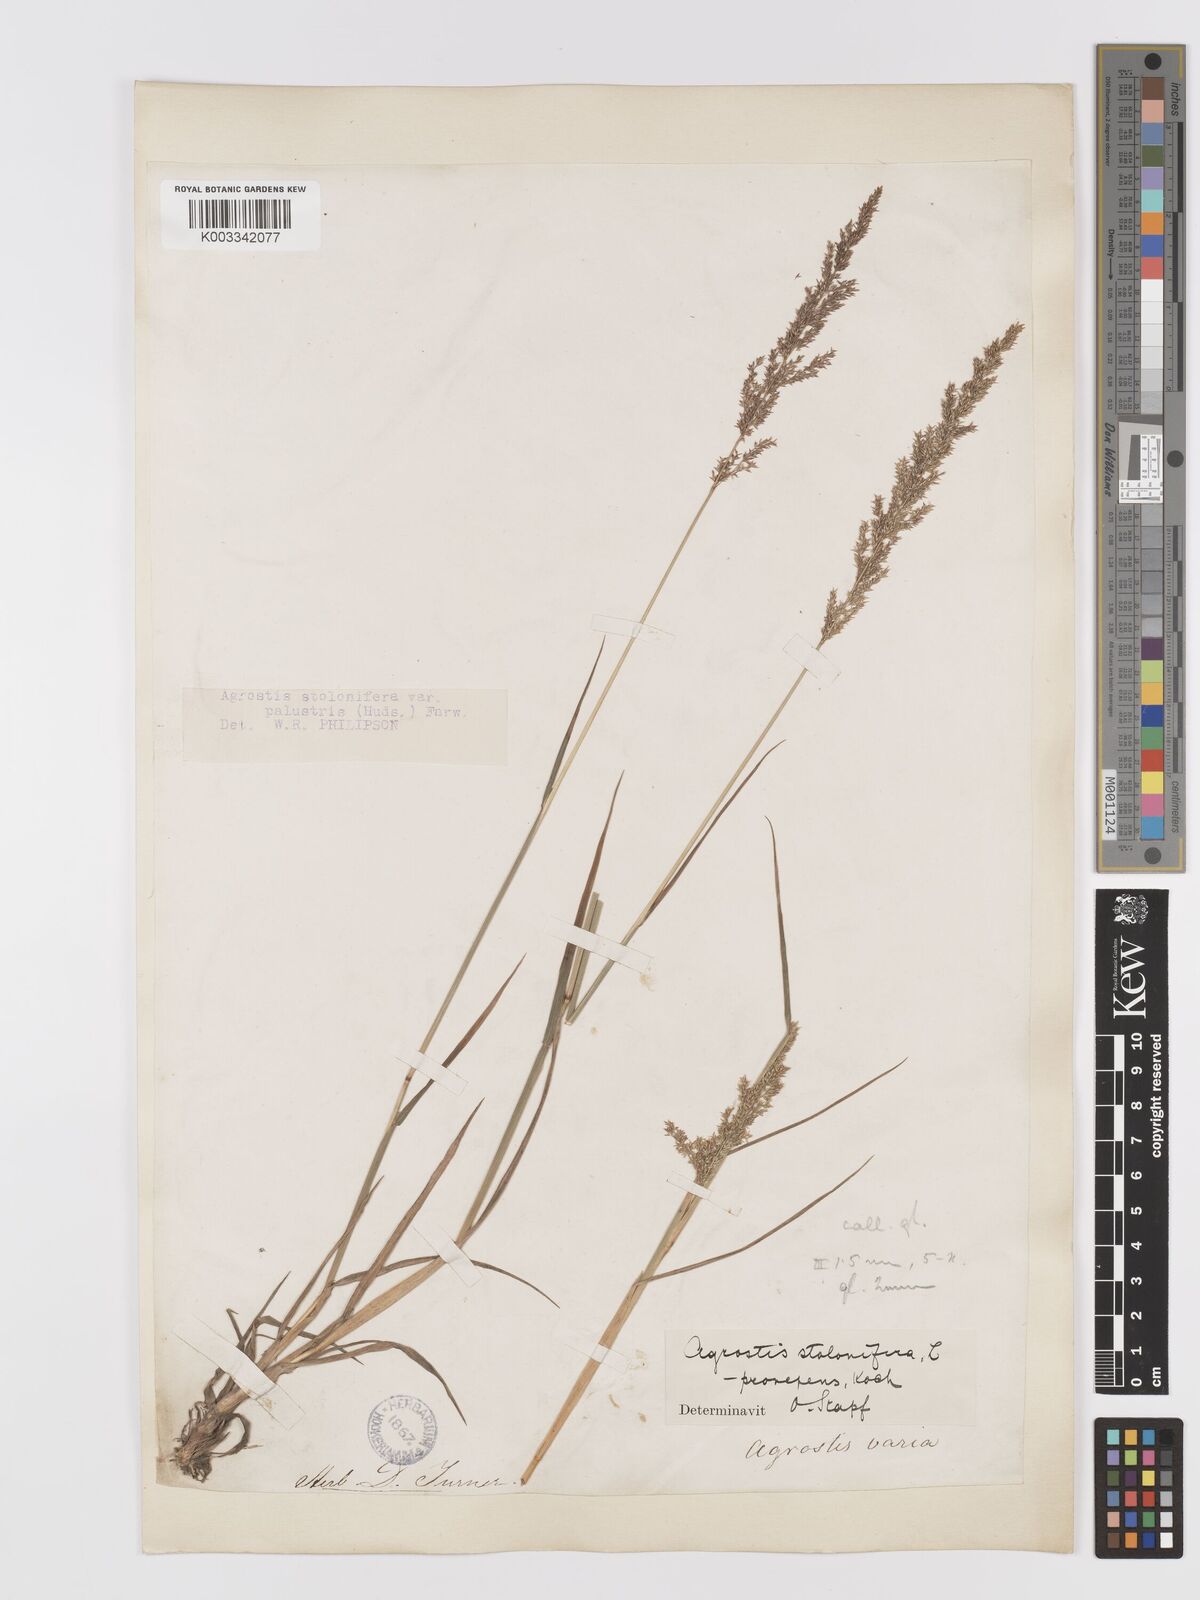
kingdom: Plantae
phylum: Tracheophyta
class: Liliopsida
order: Poales
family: Poaceae
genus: Agrostis
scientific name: Agrostis stolonifera
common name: Creeping bentgrass
